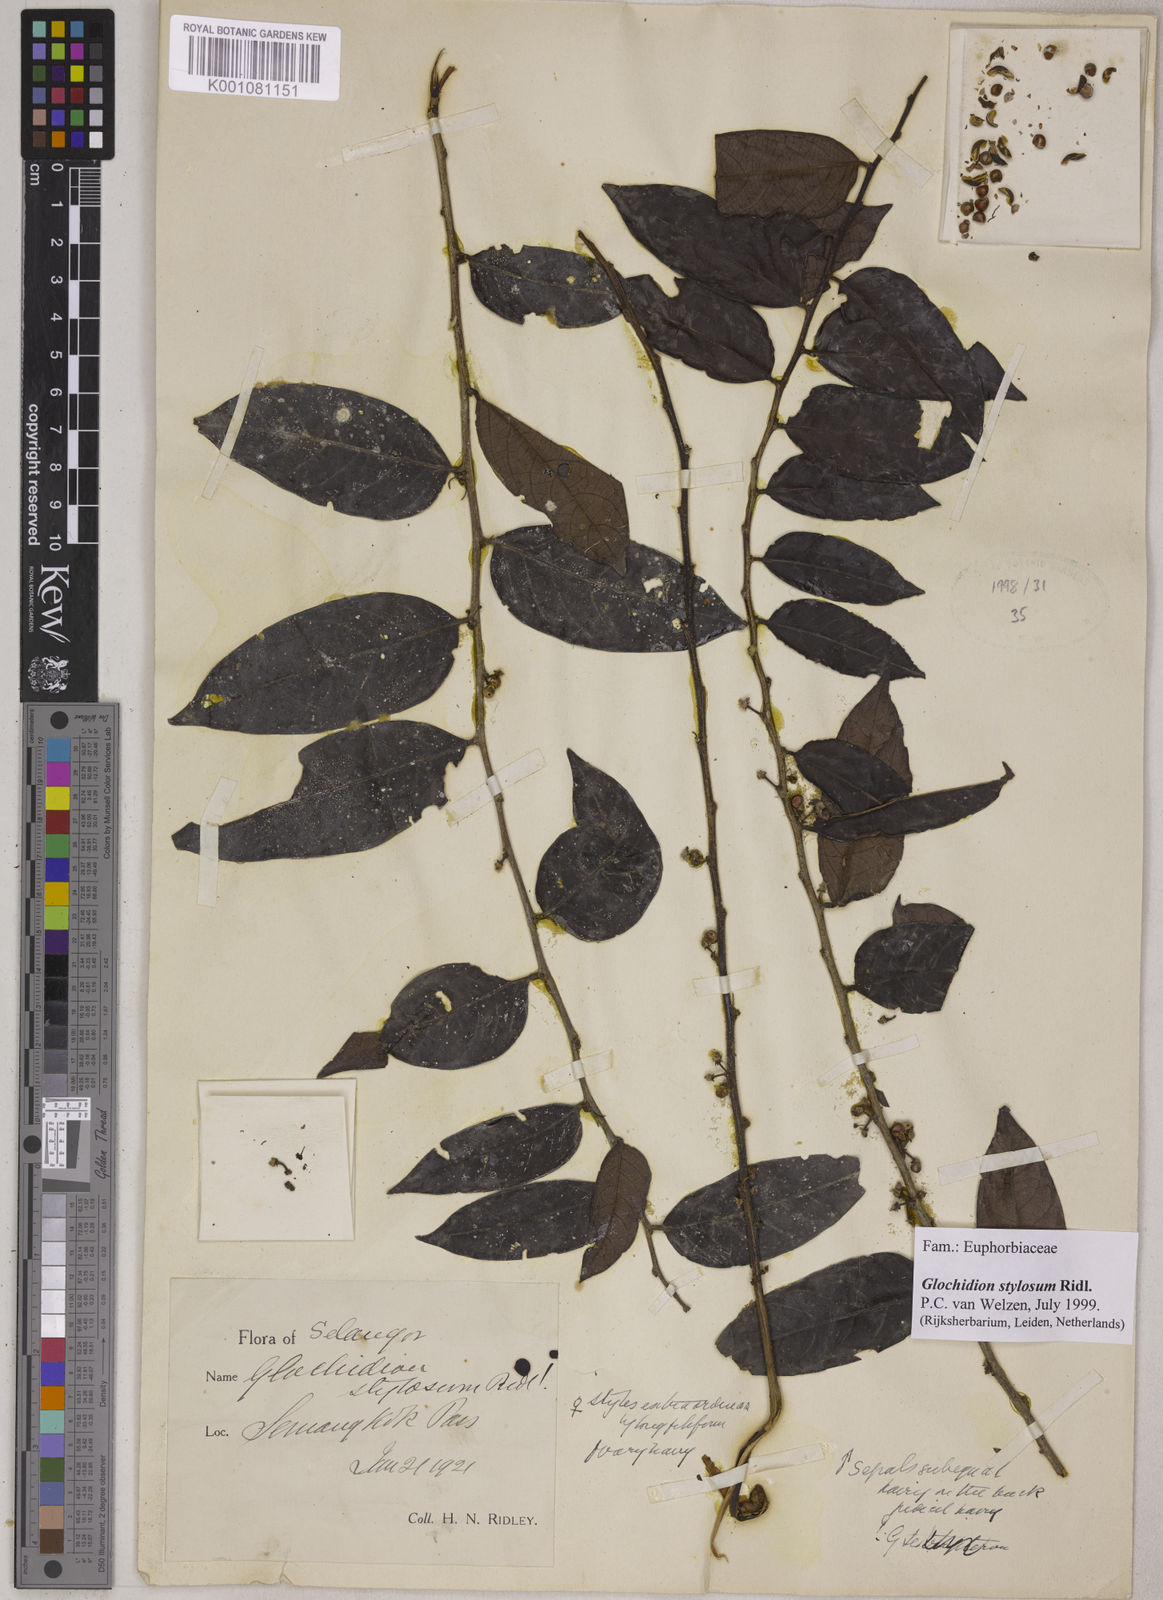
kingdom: Plantae
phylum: Tracheophyta
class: Magnoliopsida
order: Malpighiales
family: Phyllanthaceae
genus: Glochidion
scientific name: Glochidion stylosum
